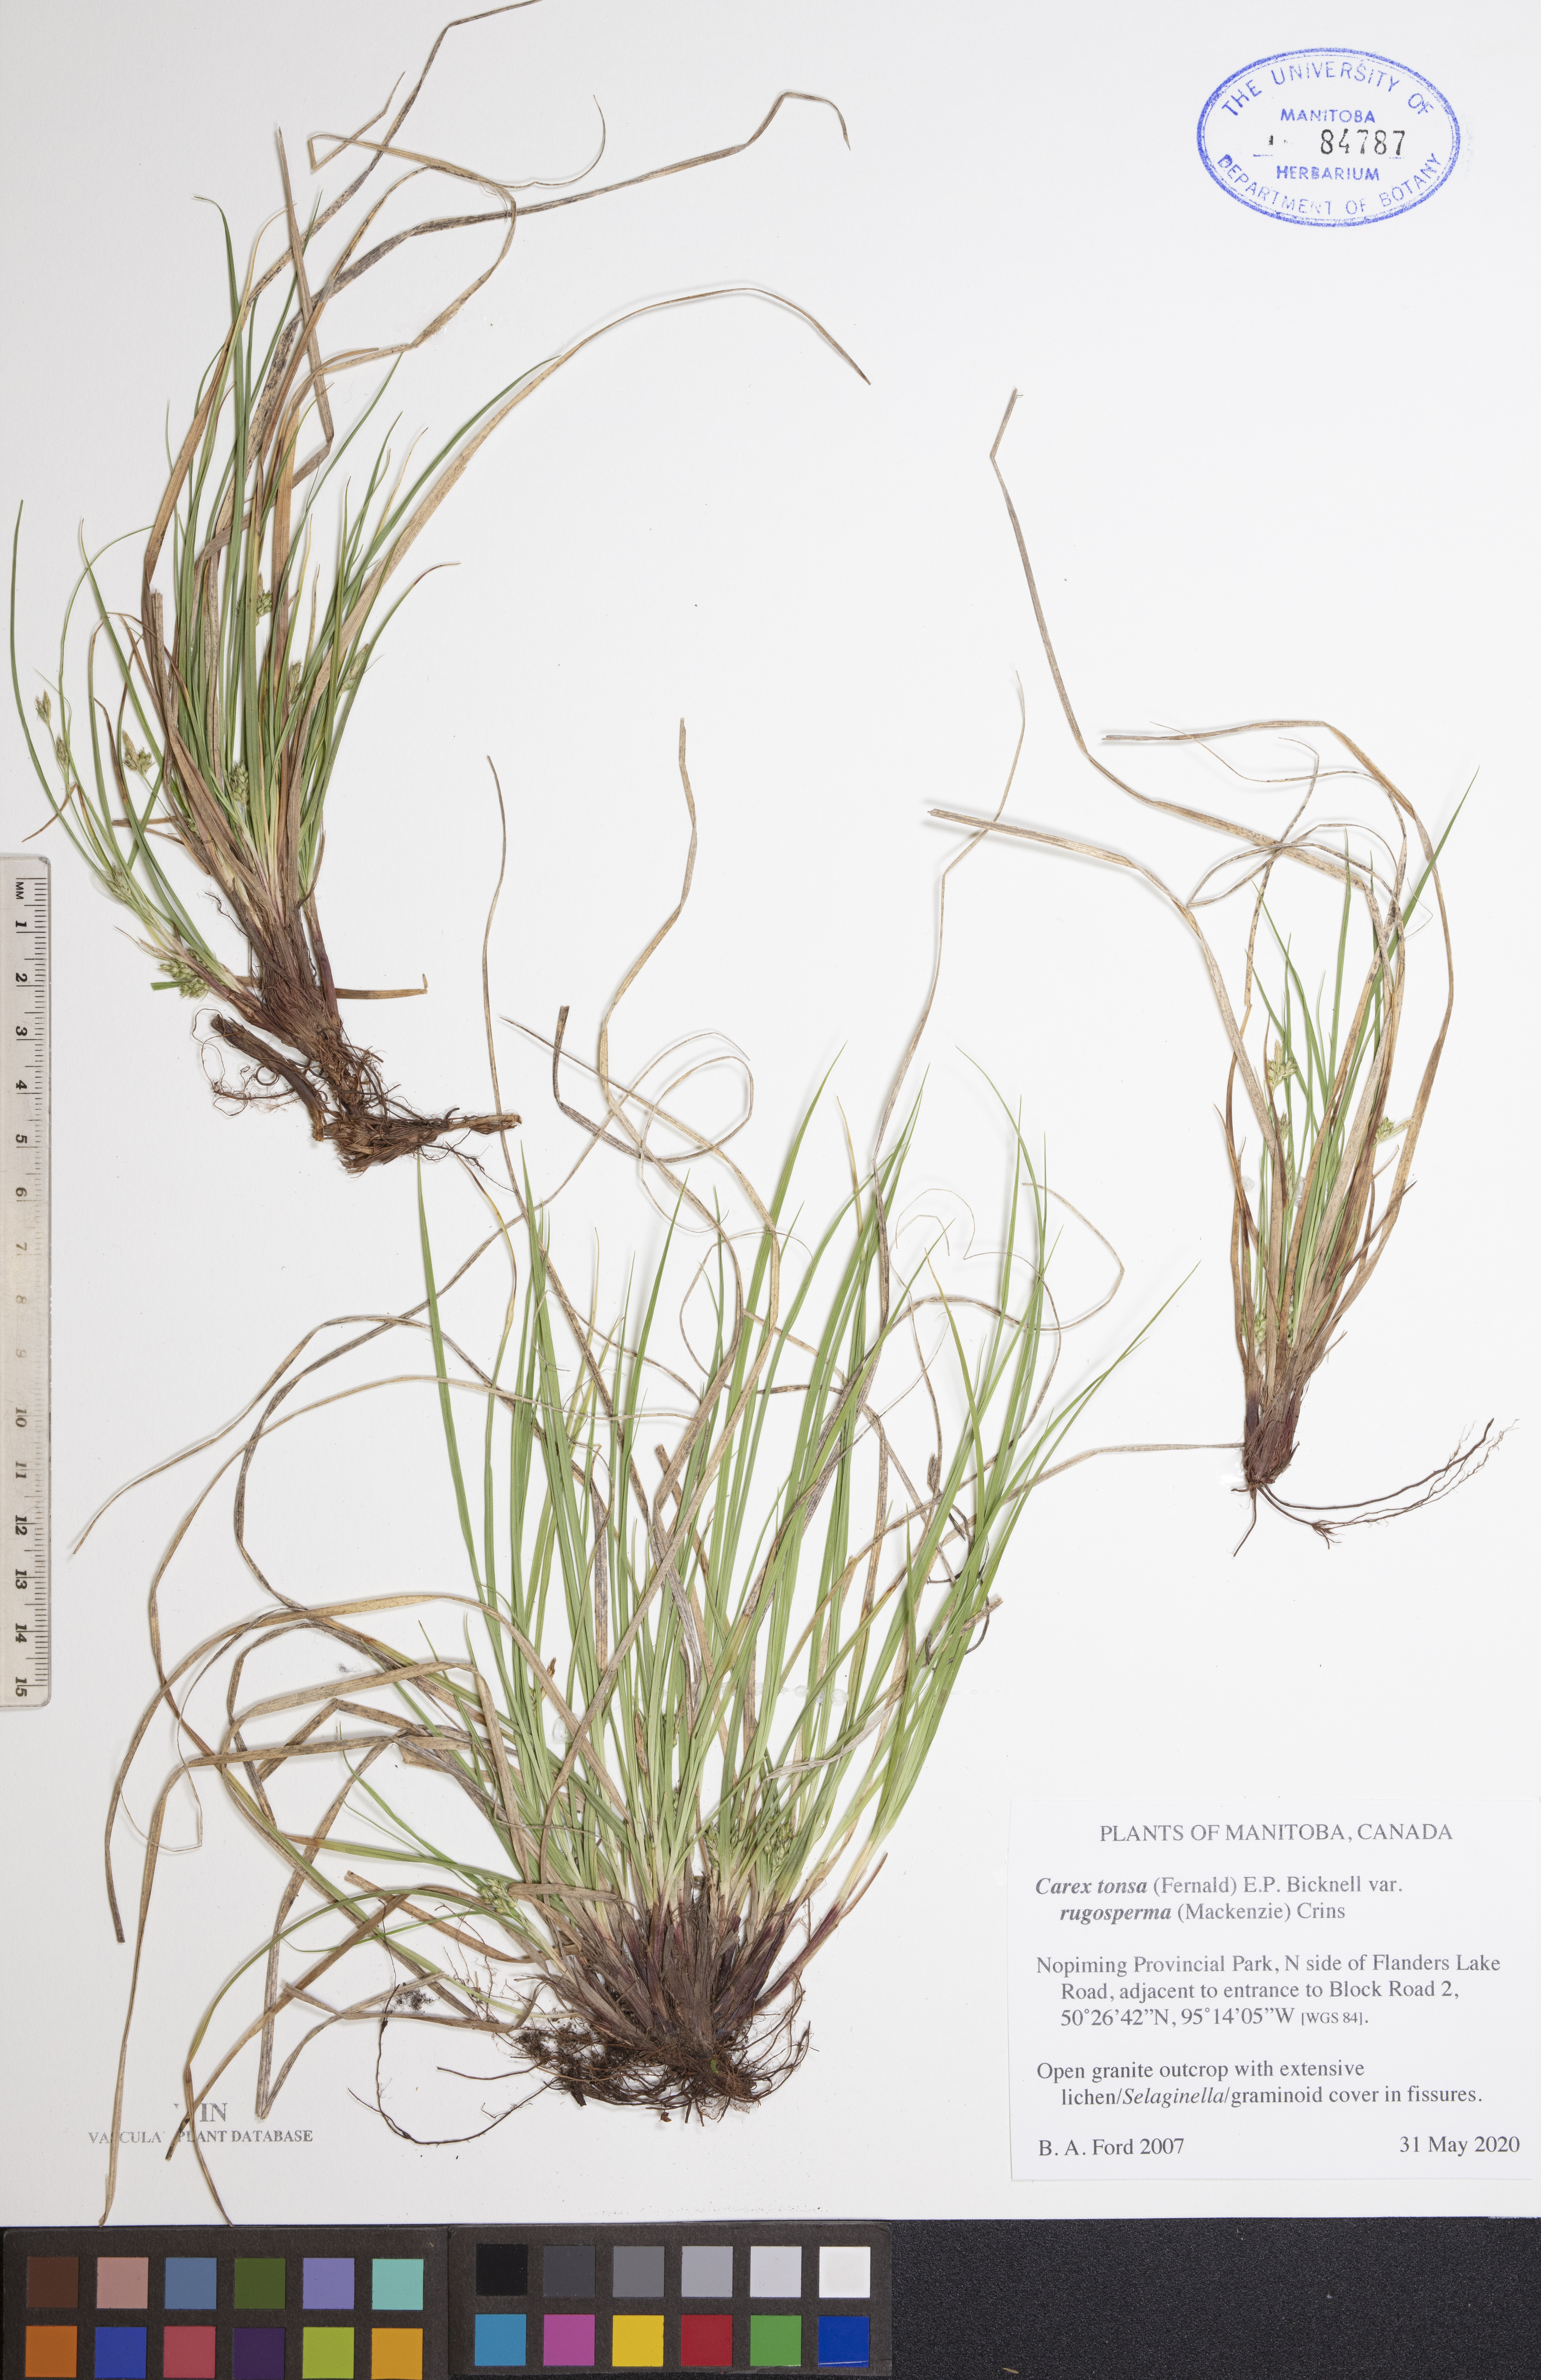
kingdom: Plantae
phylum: Tracheophyta
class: Liliopsida
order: Poales
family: Cyperaceae
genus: Carex
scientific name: Carex tonsa
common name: Bald sedge
